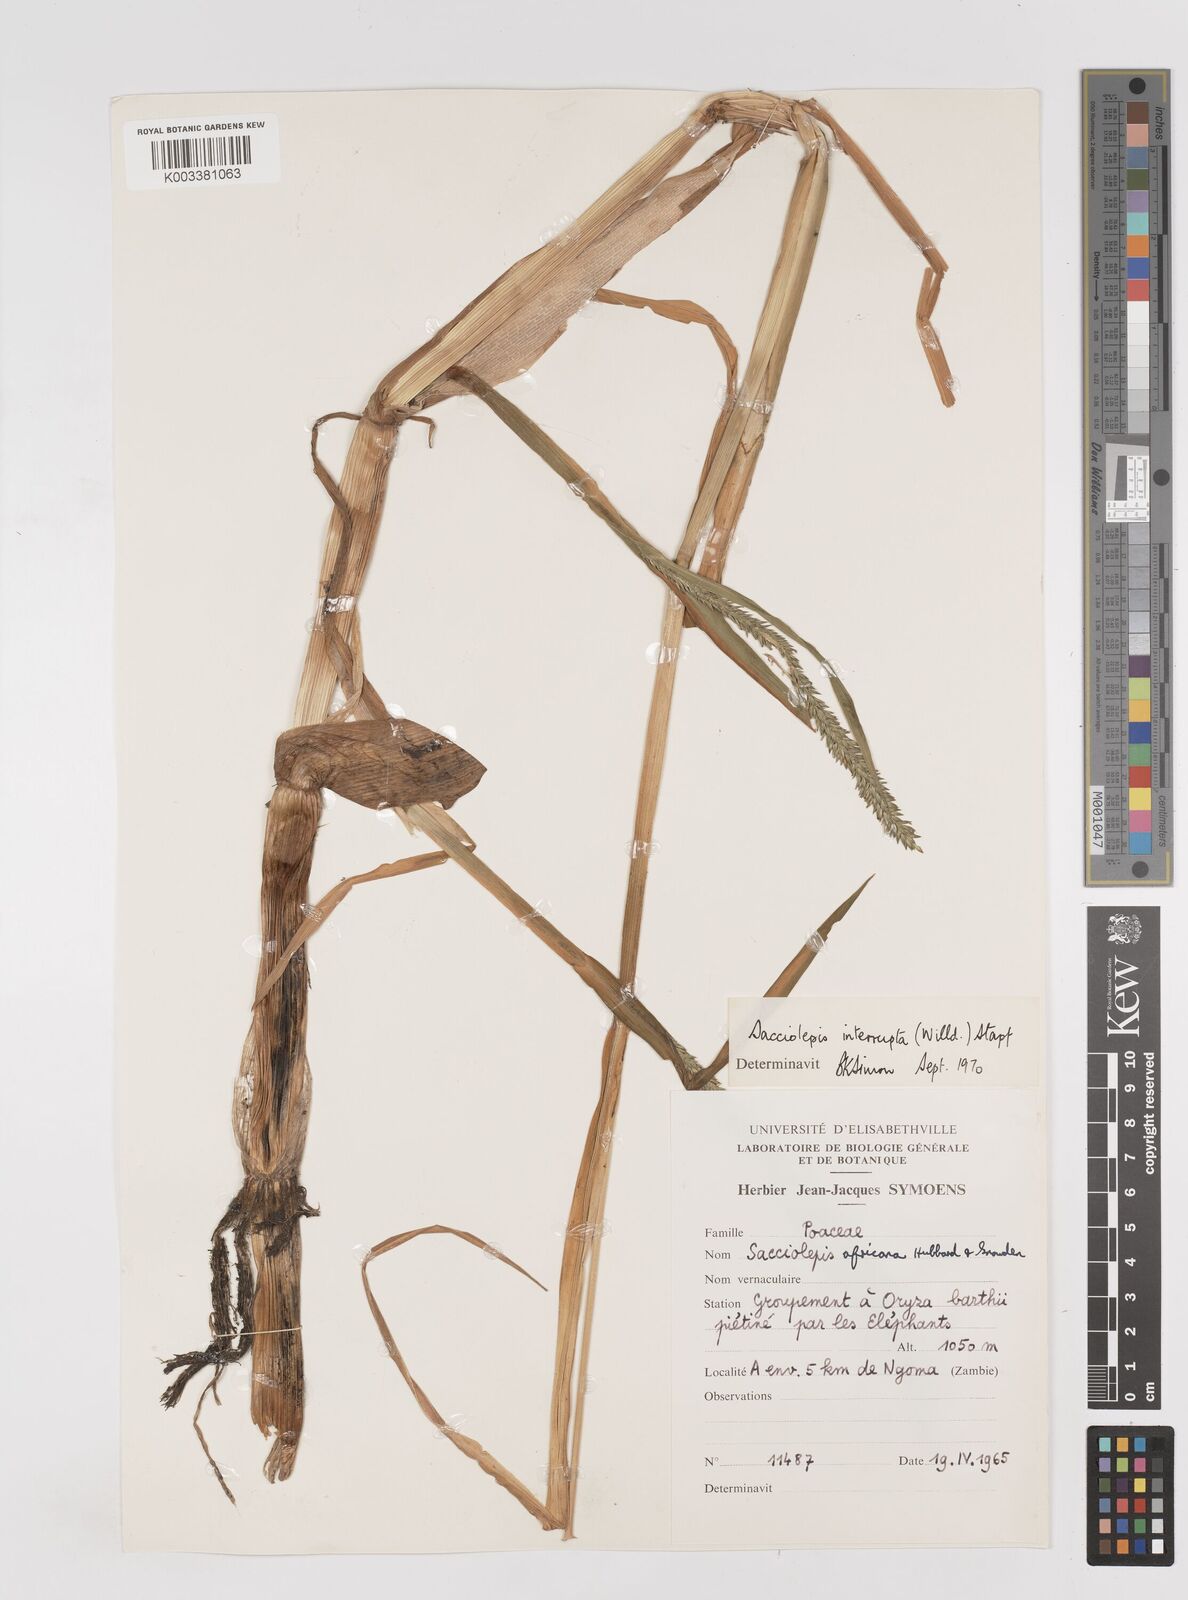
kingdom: Plantae
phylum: Tracheophyta
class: Liliopsida
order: Poales
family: Poaceae
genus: Sacciolepis
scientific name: Sacciolepis interrupta
